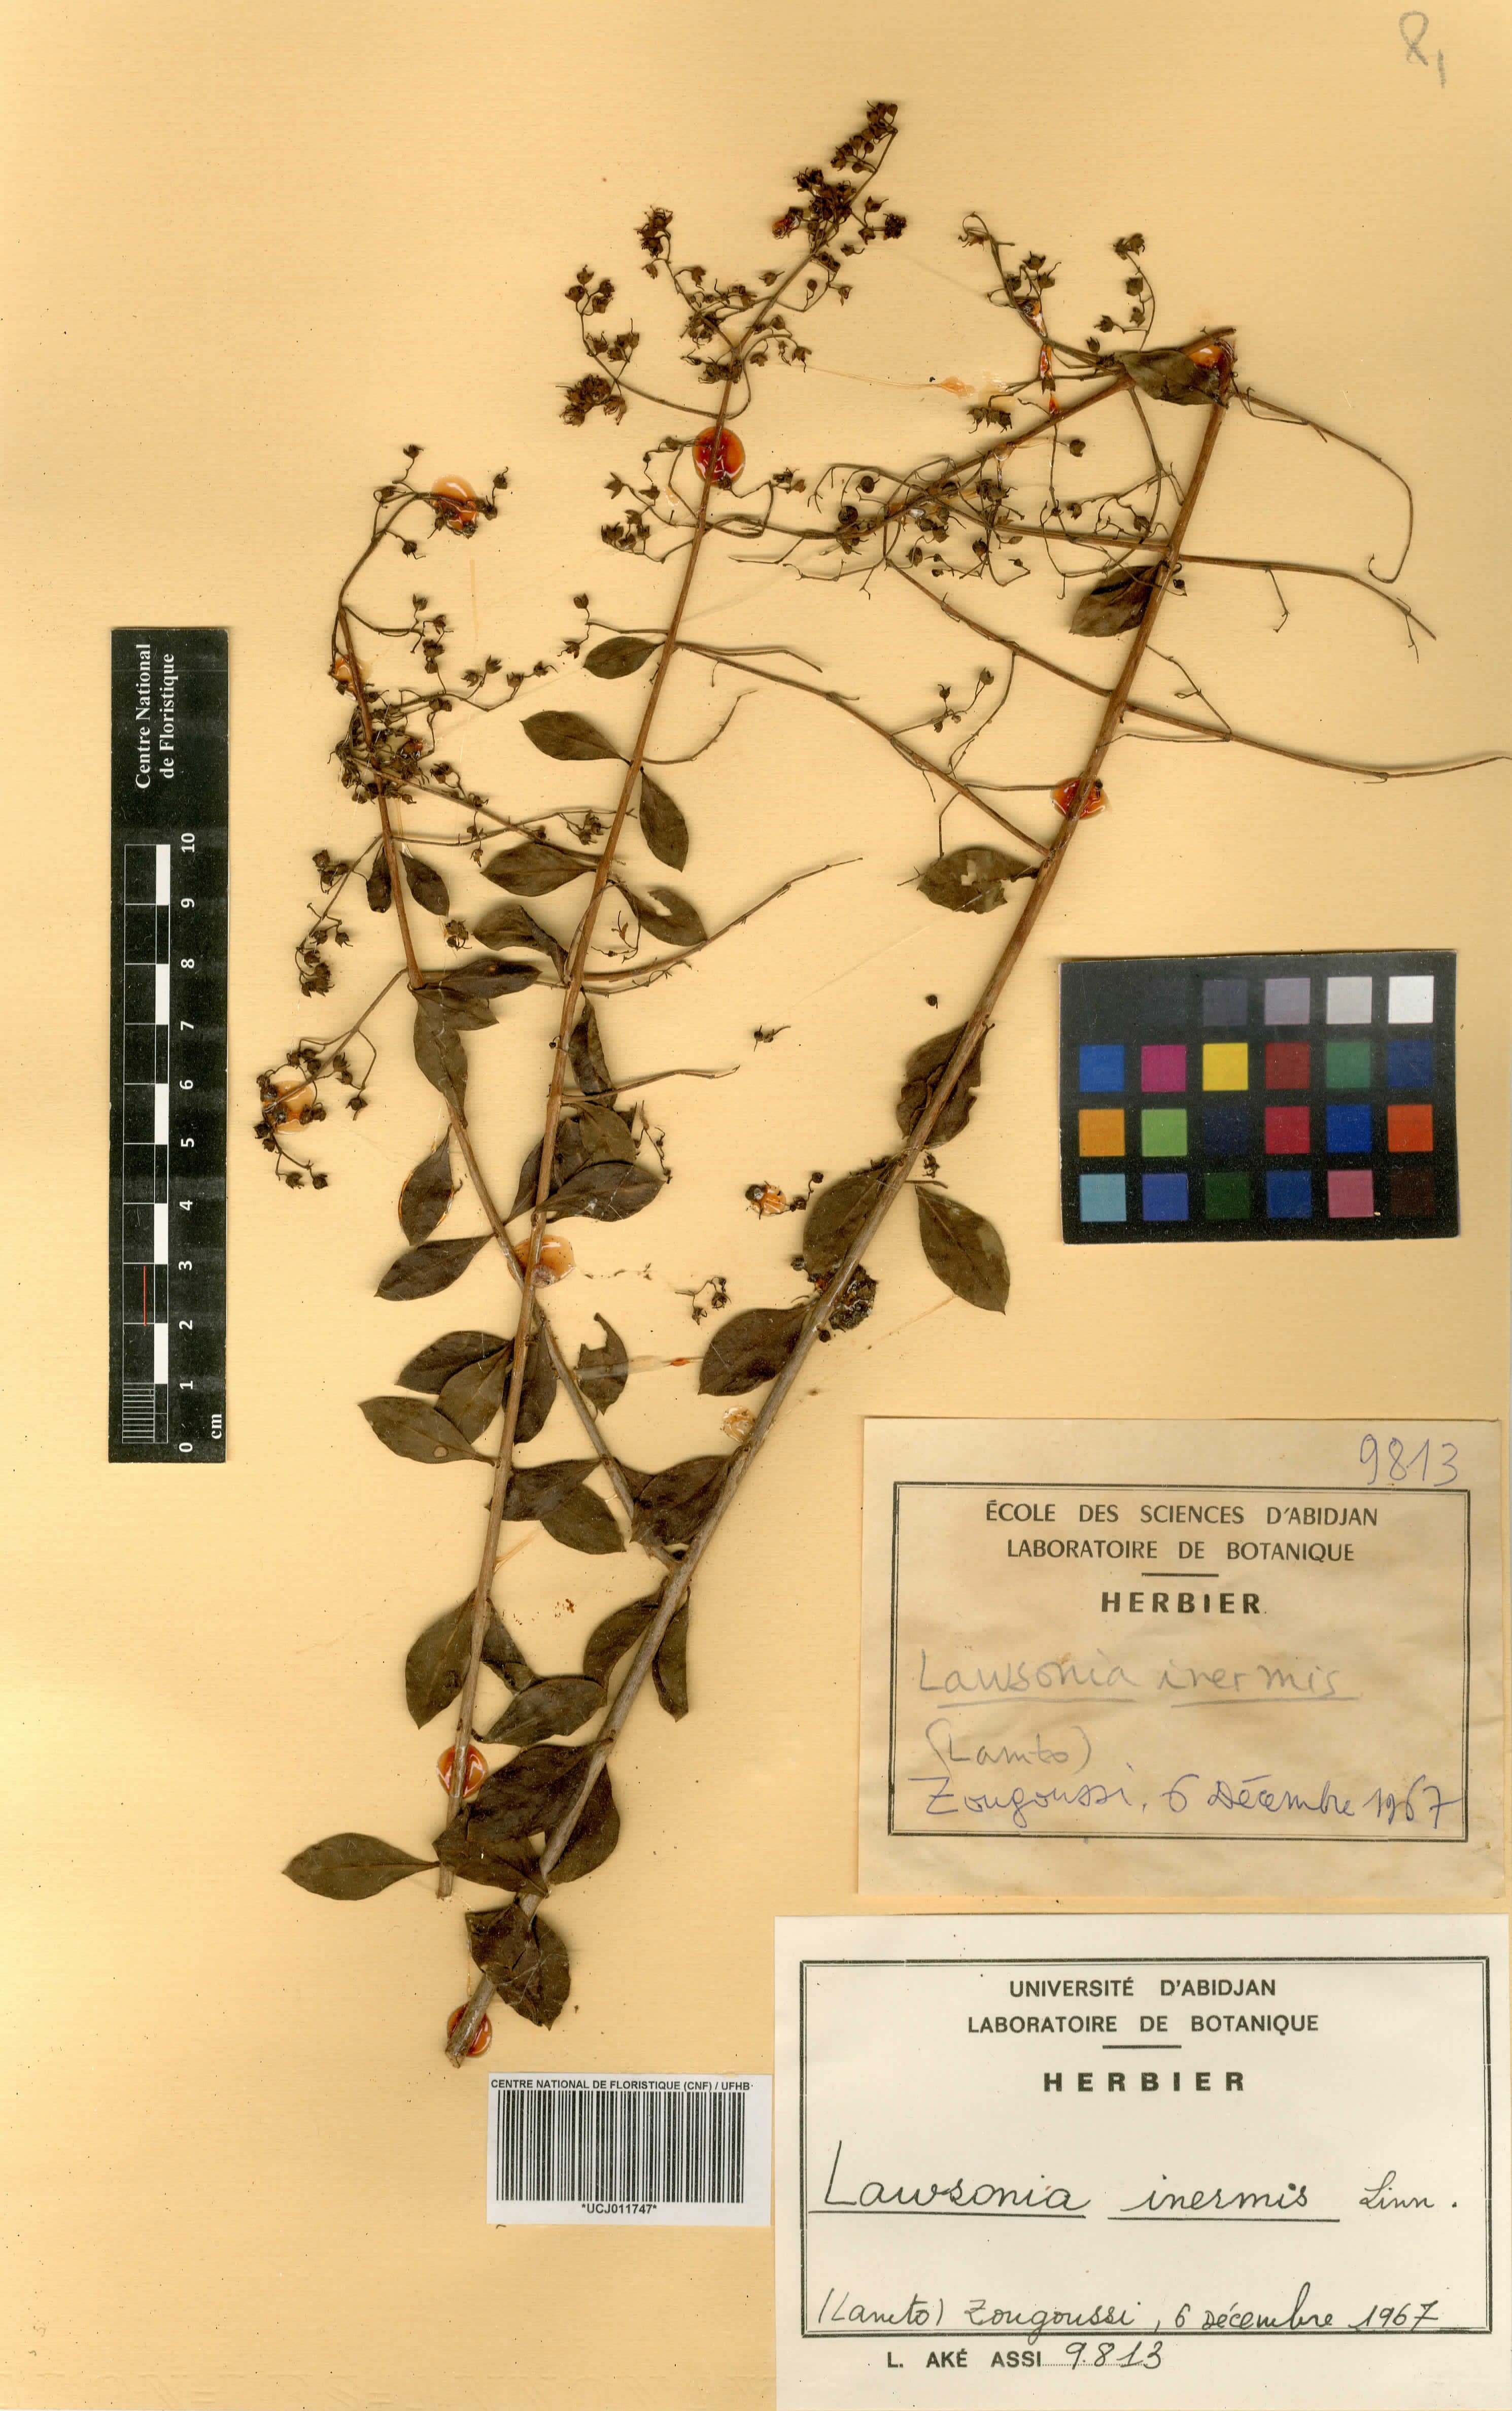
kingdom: Plantae
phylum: Tracheophyta
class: Magnoliopsida
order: Myrtales
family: Lythraceae
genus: Lawsonia
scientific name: Lawsonia inermis
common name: Henna
